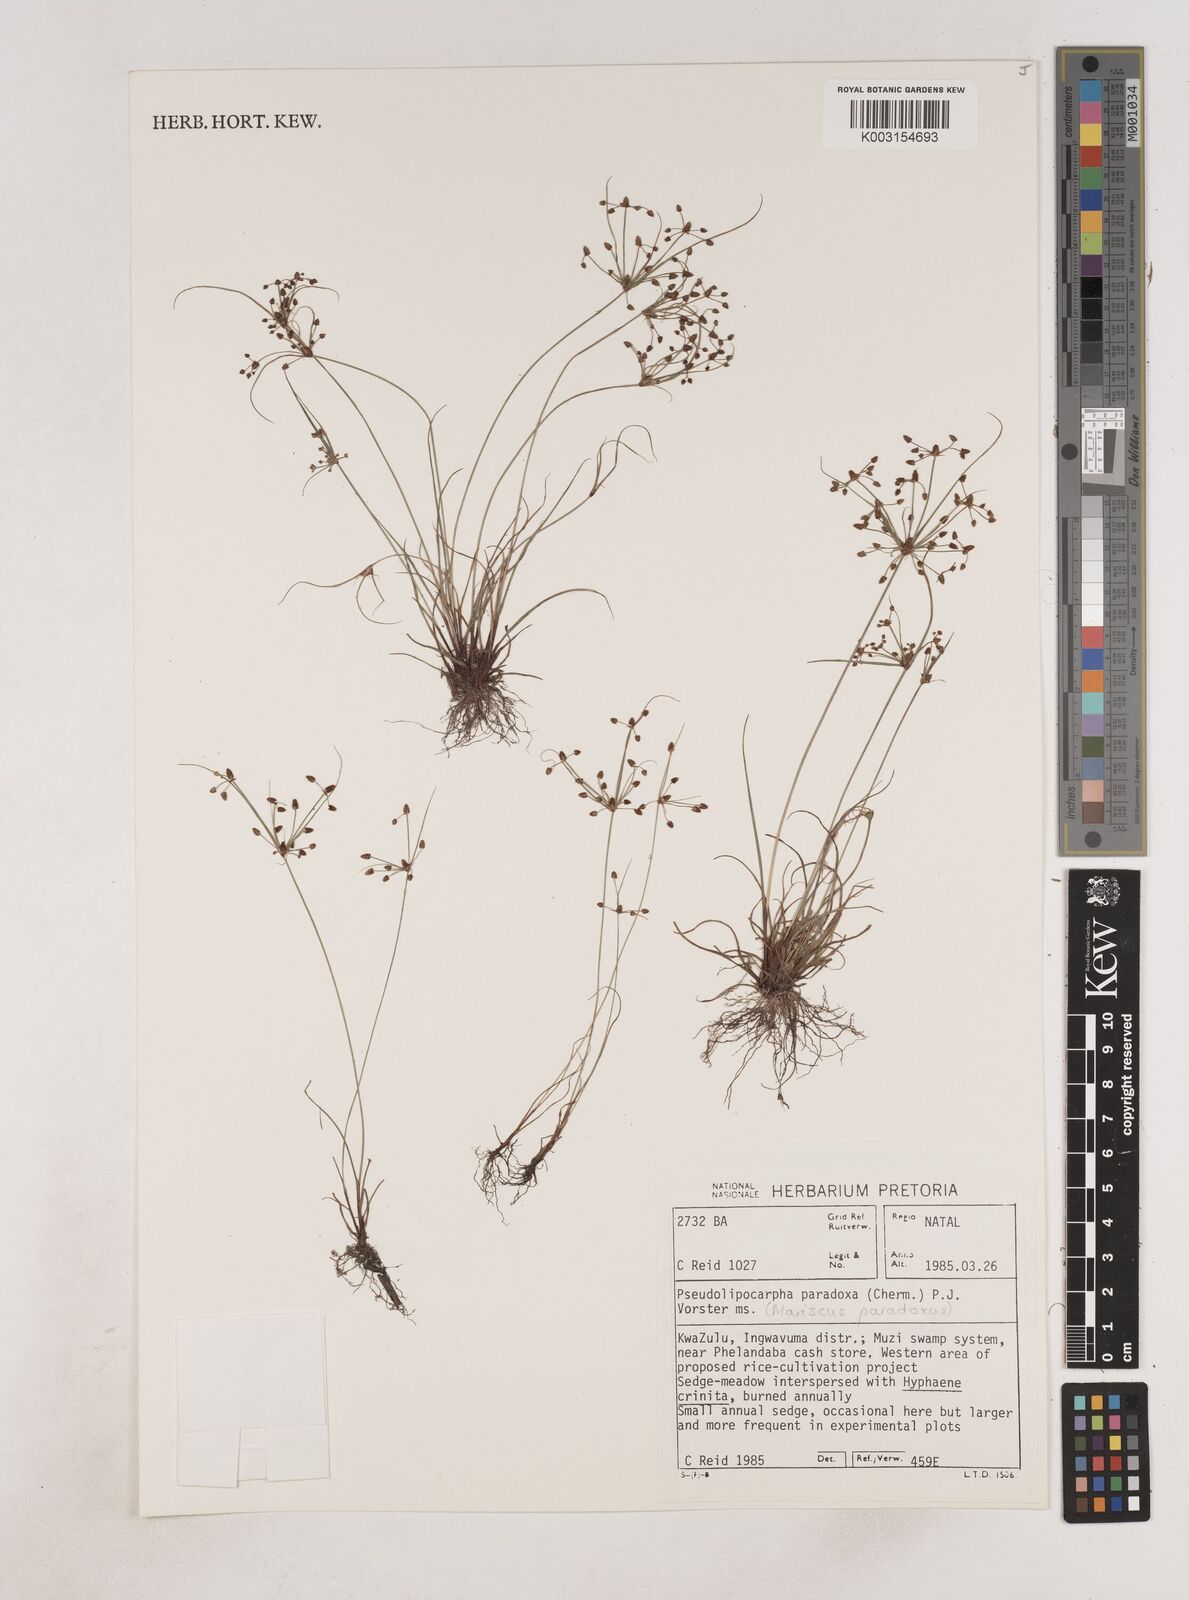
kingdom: Plantae
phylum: Tracheophyta
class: Liliopsida
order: Poales
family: Cyperaceae
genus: Cyperus
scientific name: Cyperus
